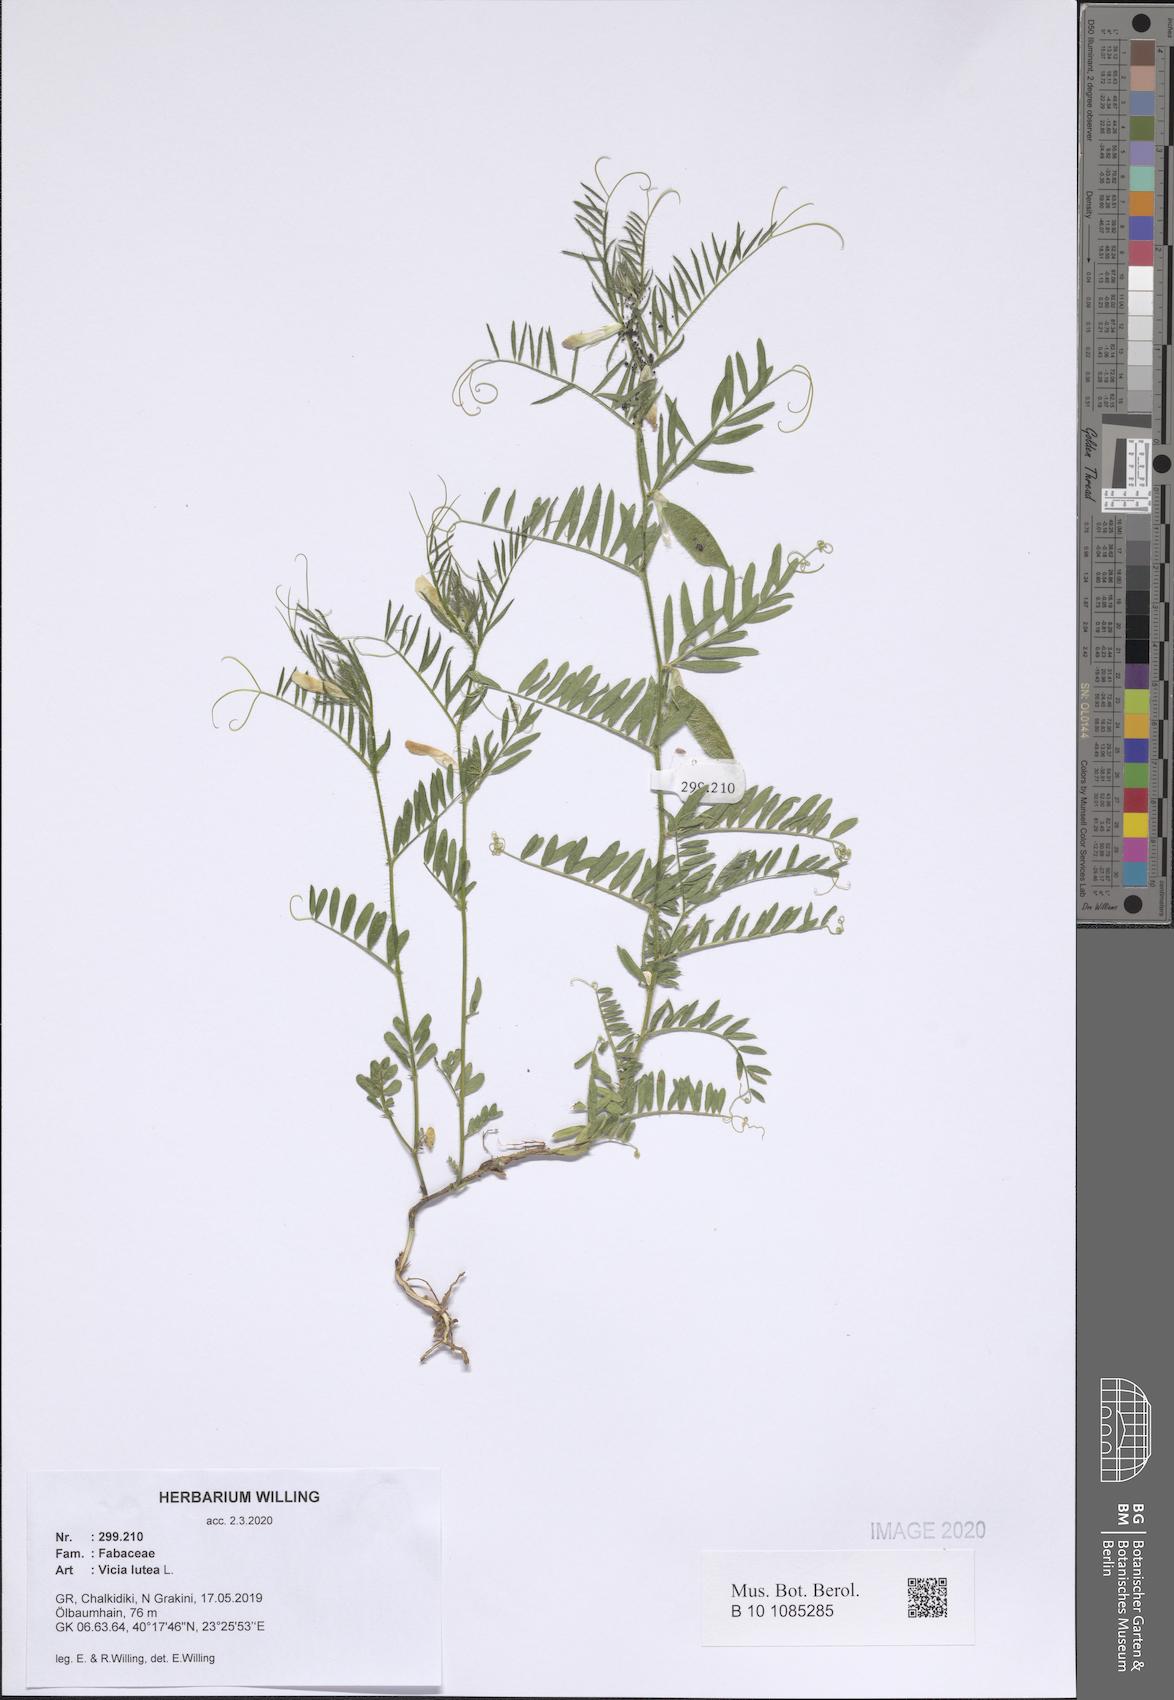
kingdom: Plantae
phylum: Tracheophyta
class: Magnoliopsida
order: Fabales
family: Fabaceae
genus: Vicia
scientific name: Vicia lutea
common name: Smooth yellow vetch
